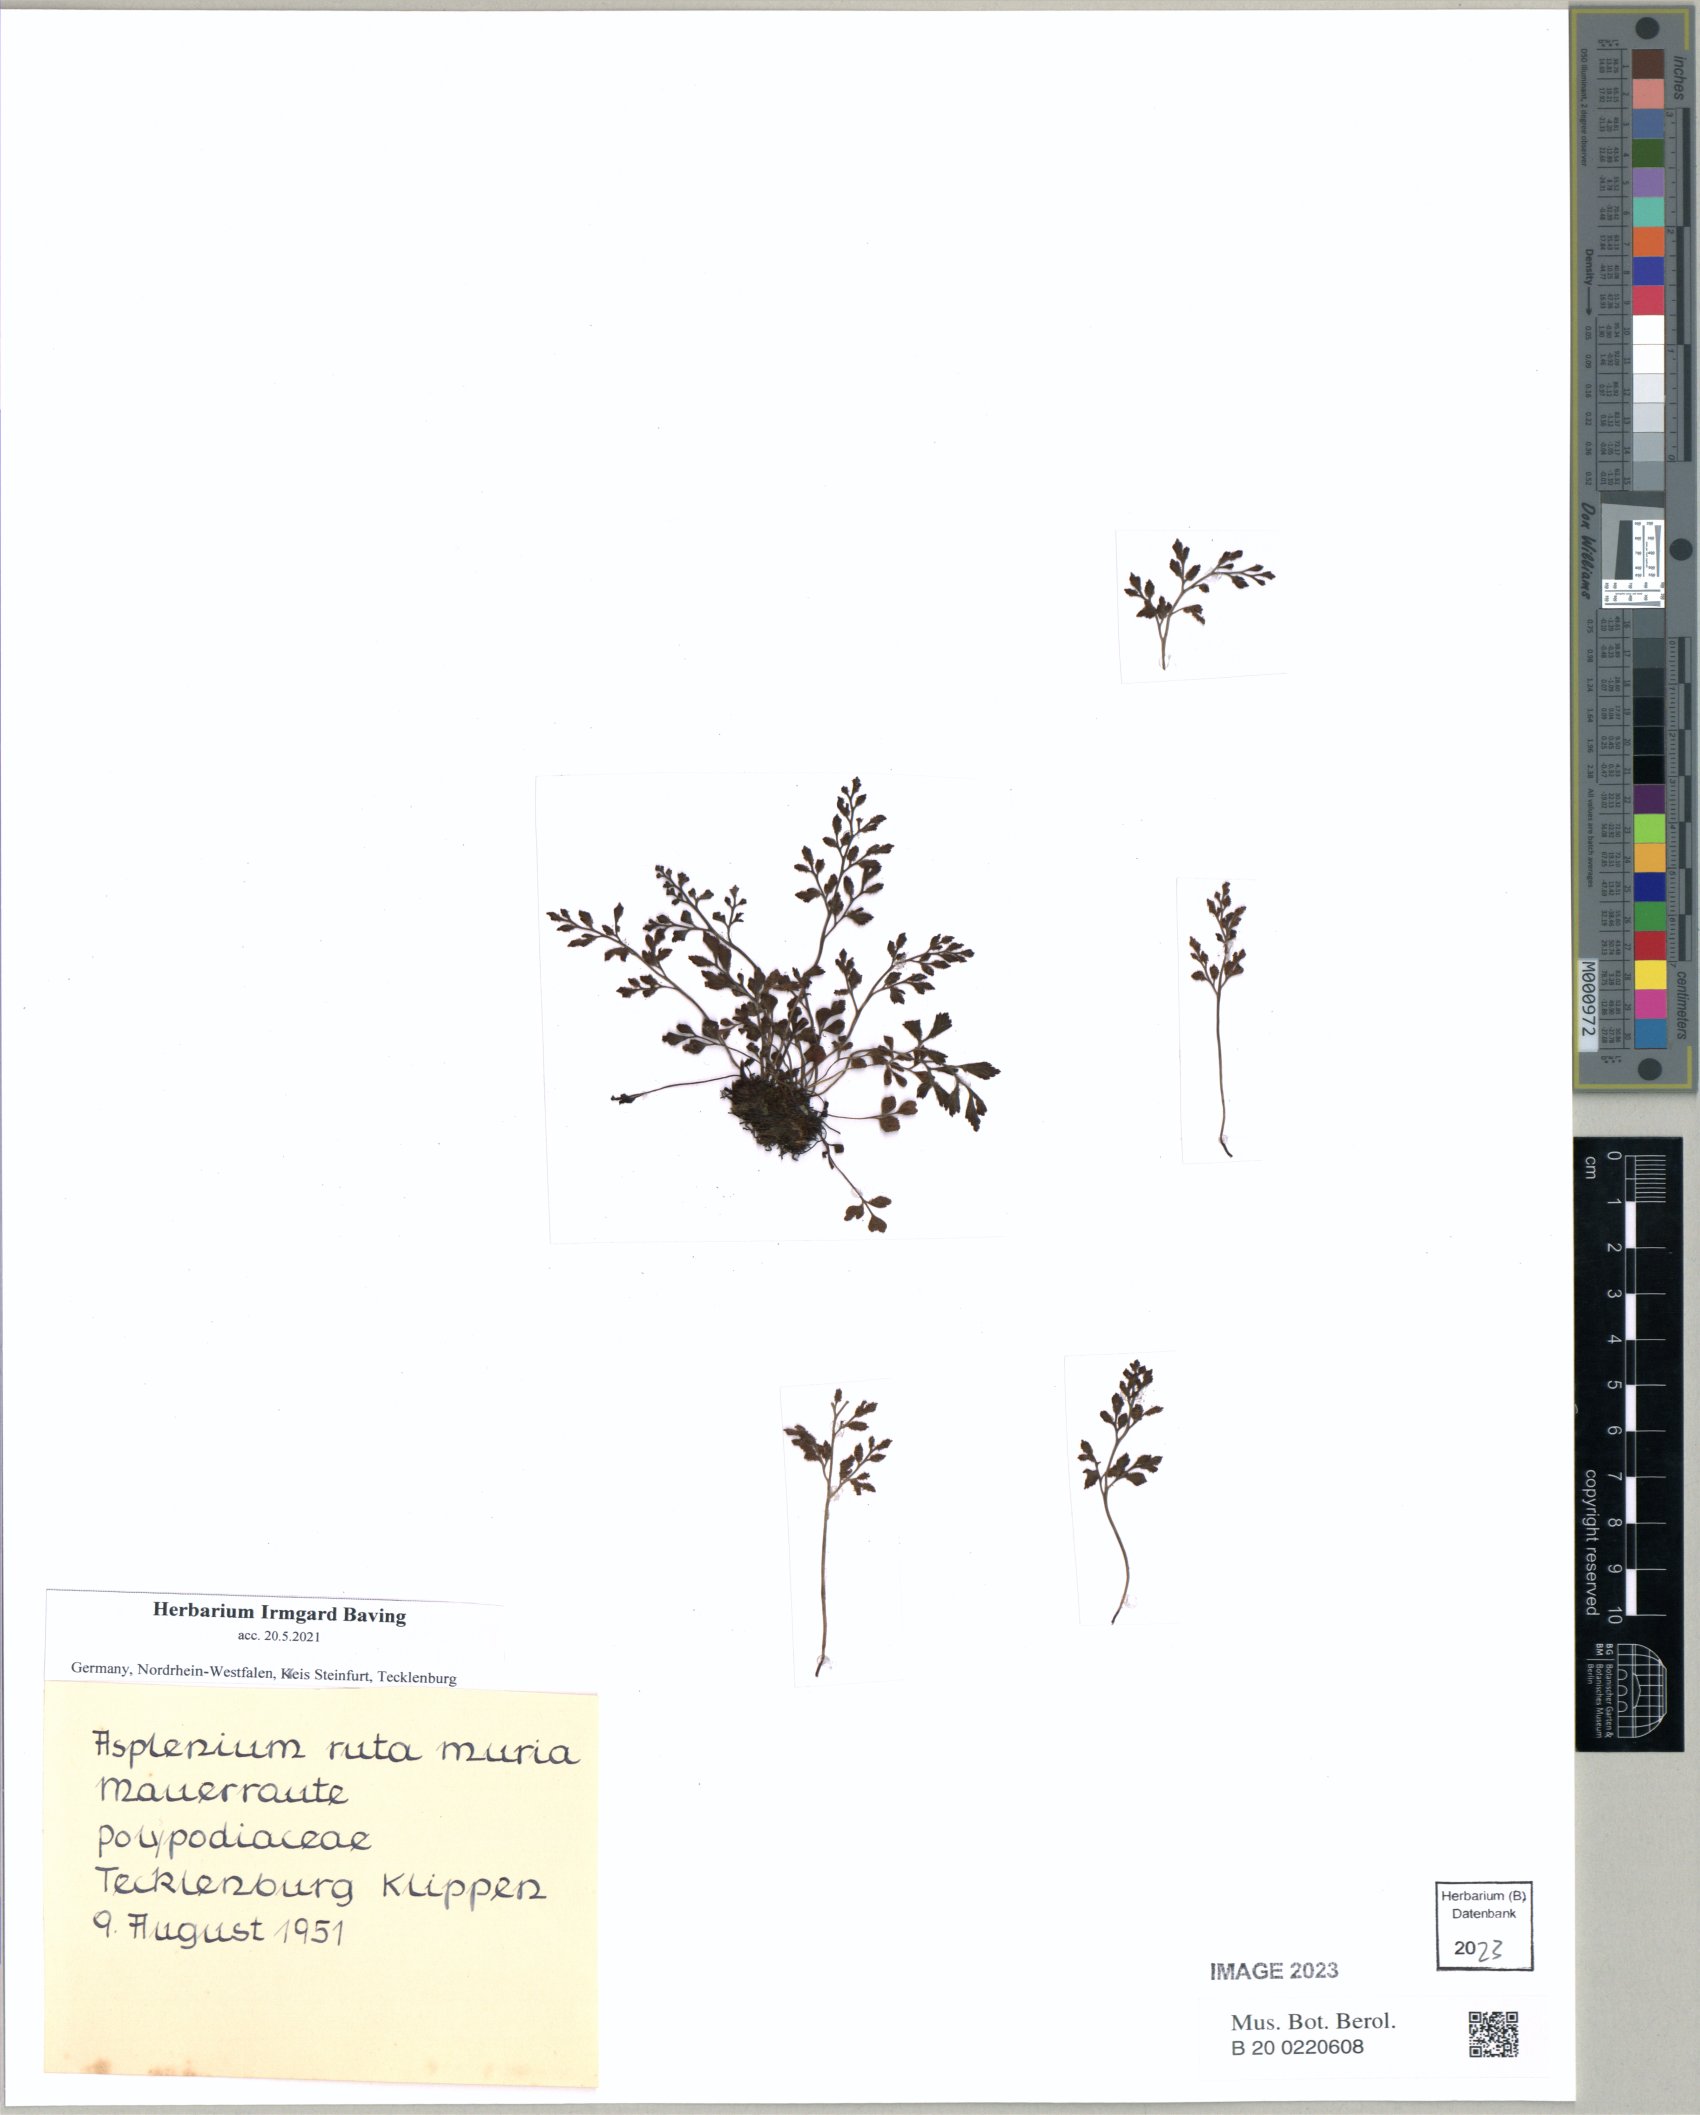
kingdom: Plantae
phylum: Tracheophyta
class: Polypodiopsida
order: Polypodiales
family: Aspleniaceae
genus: Asplenium
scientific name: Asplenium ruta-muraria
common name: Wall-rue
